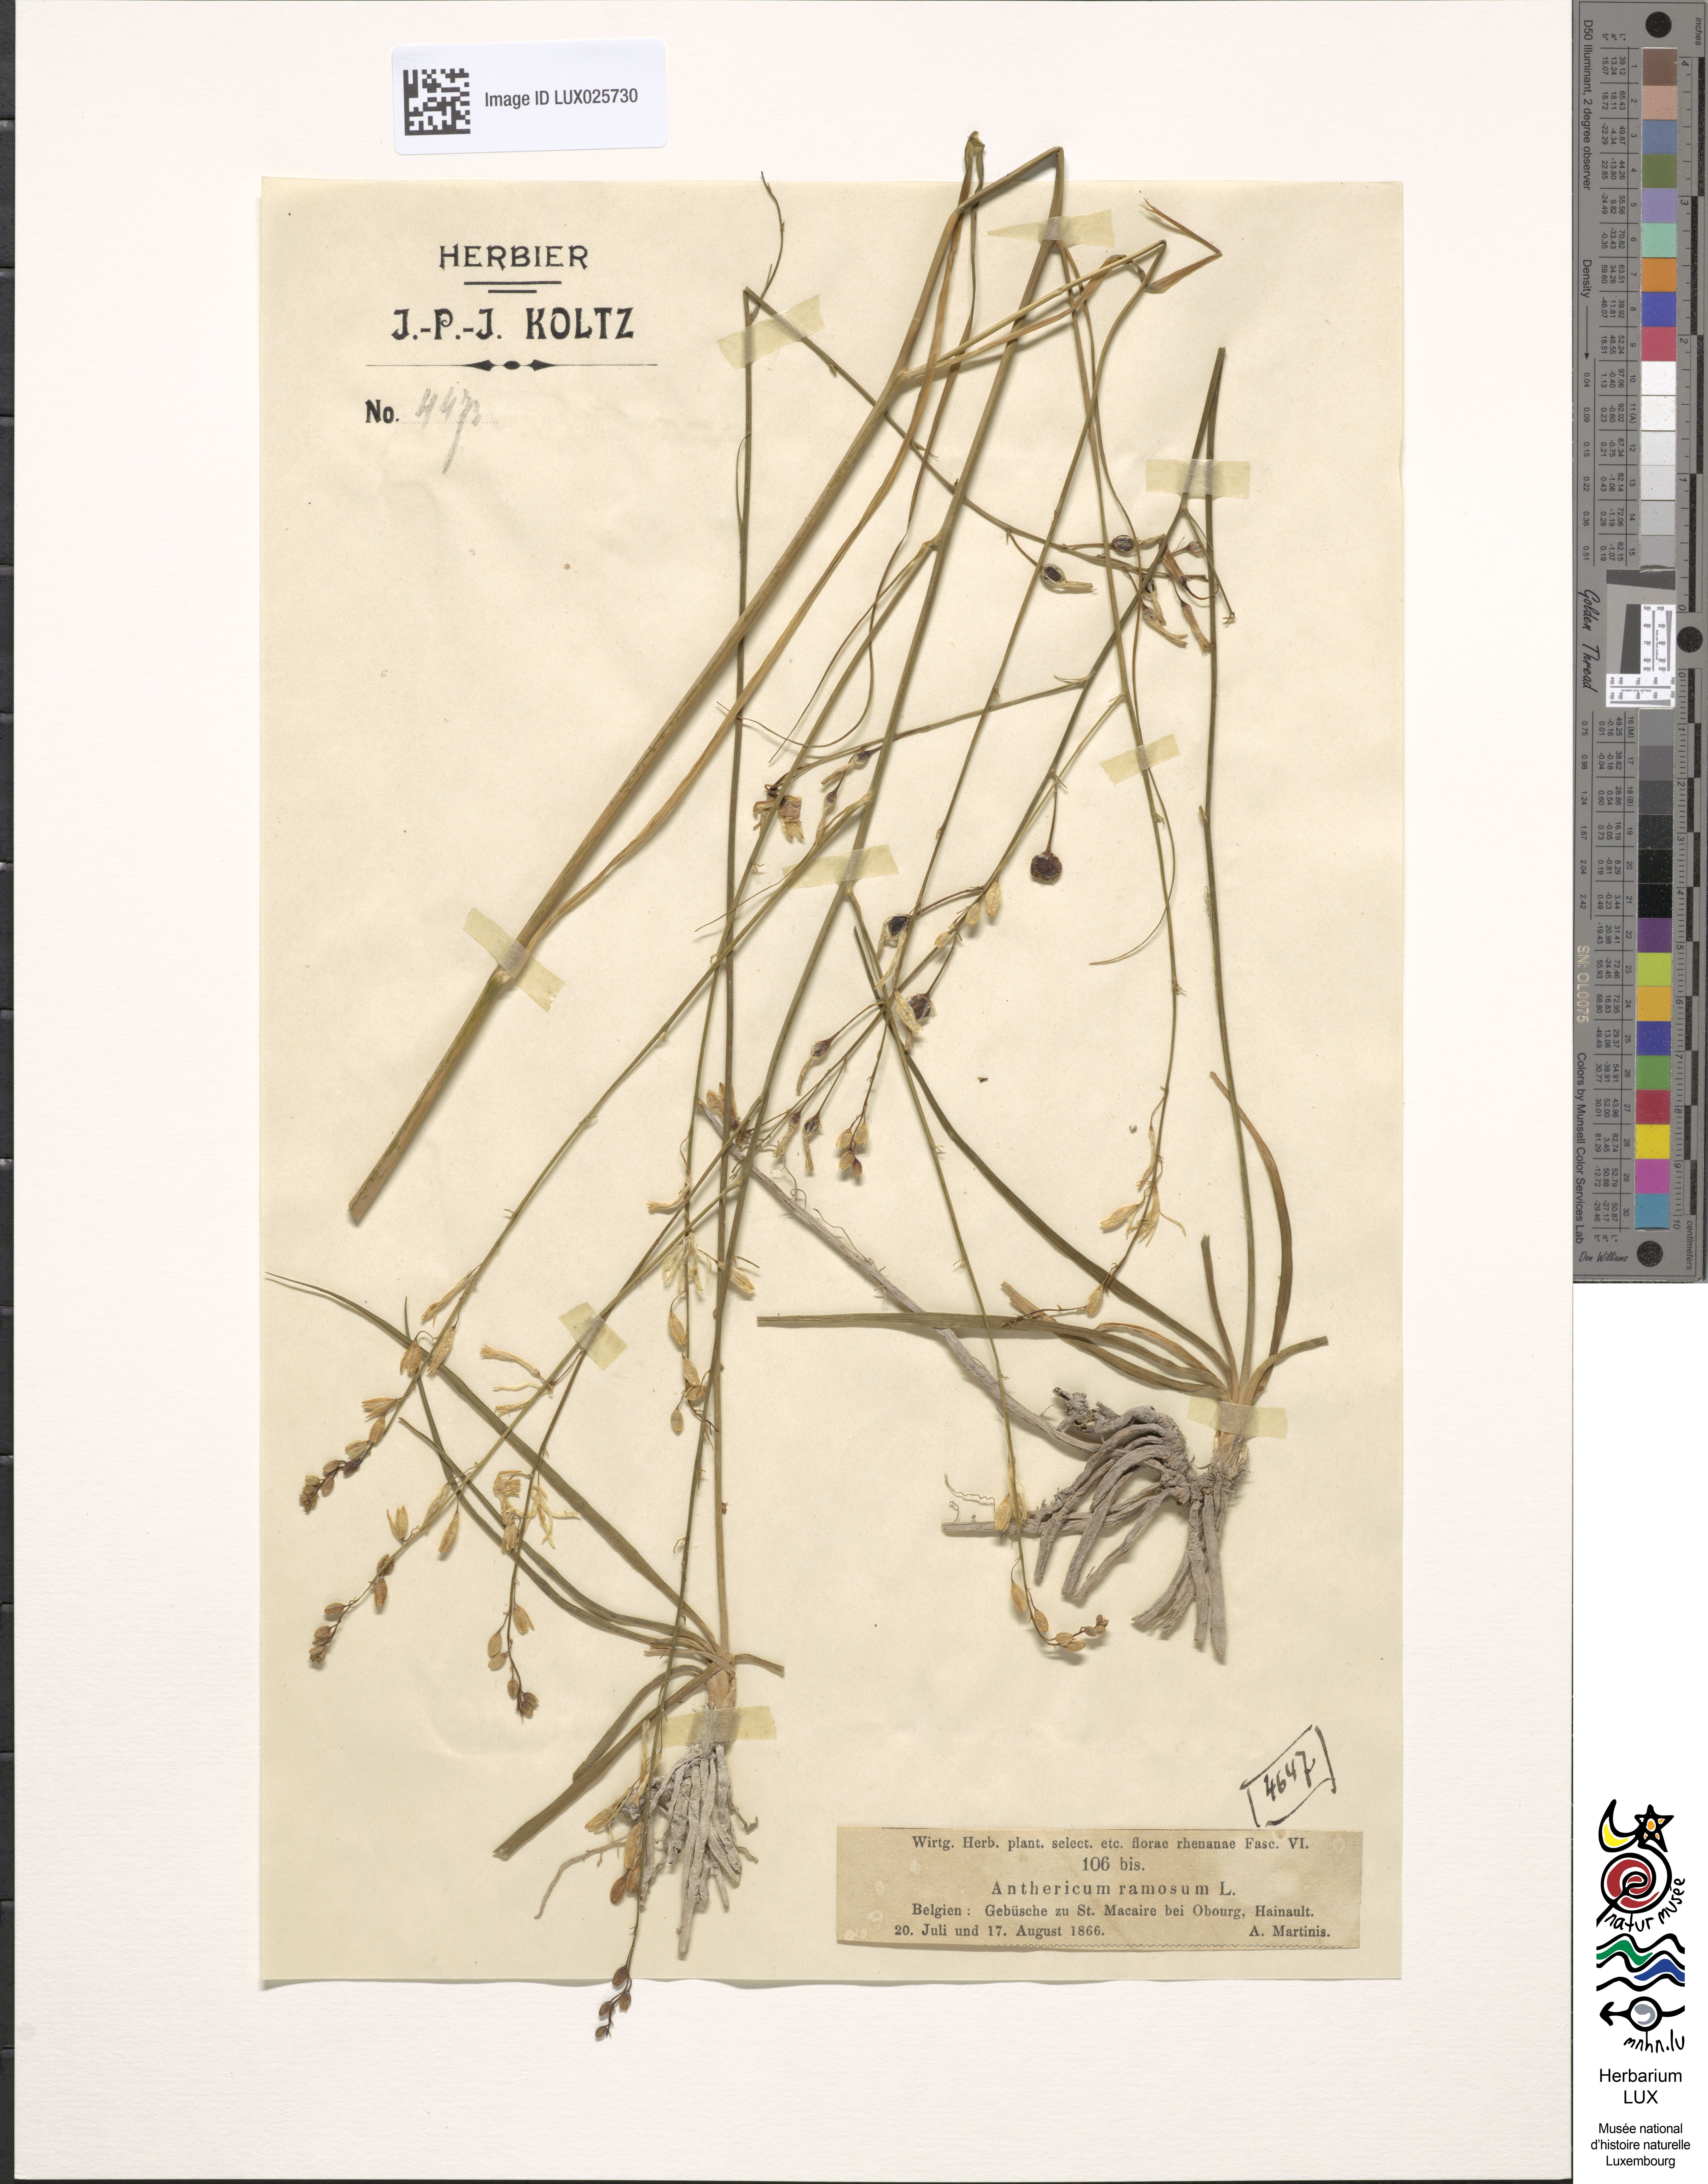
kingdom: Plantae
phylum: Tracheophyta
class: Liliopsida
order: Asparagales
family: Asparagaceae
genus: Anthericum
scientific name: Anthericum ramosum
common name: Branched st. bernard's-lily
